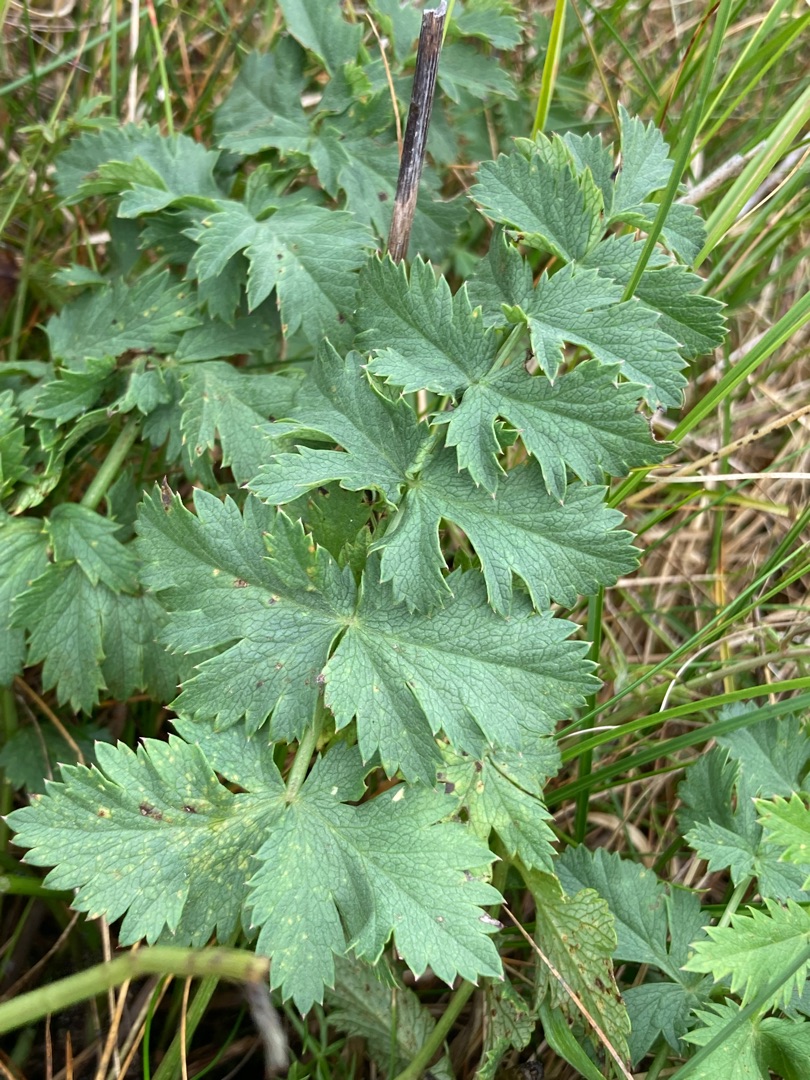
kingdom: Plantae
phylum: Tracheophyta
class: Magnoliopsida
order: Apiales
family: Apiaceae
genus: Pimpinella
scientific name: Pimpinella saxifraga
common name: Almindelig pimpinelle
